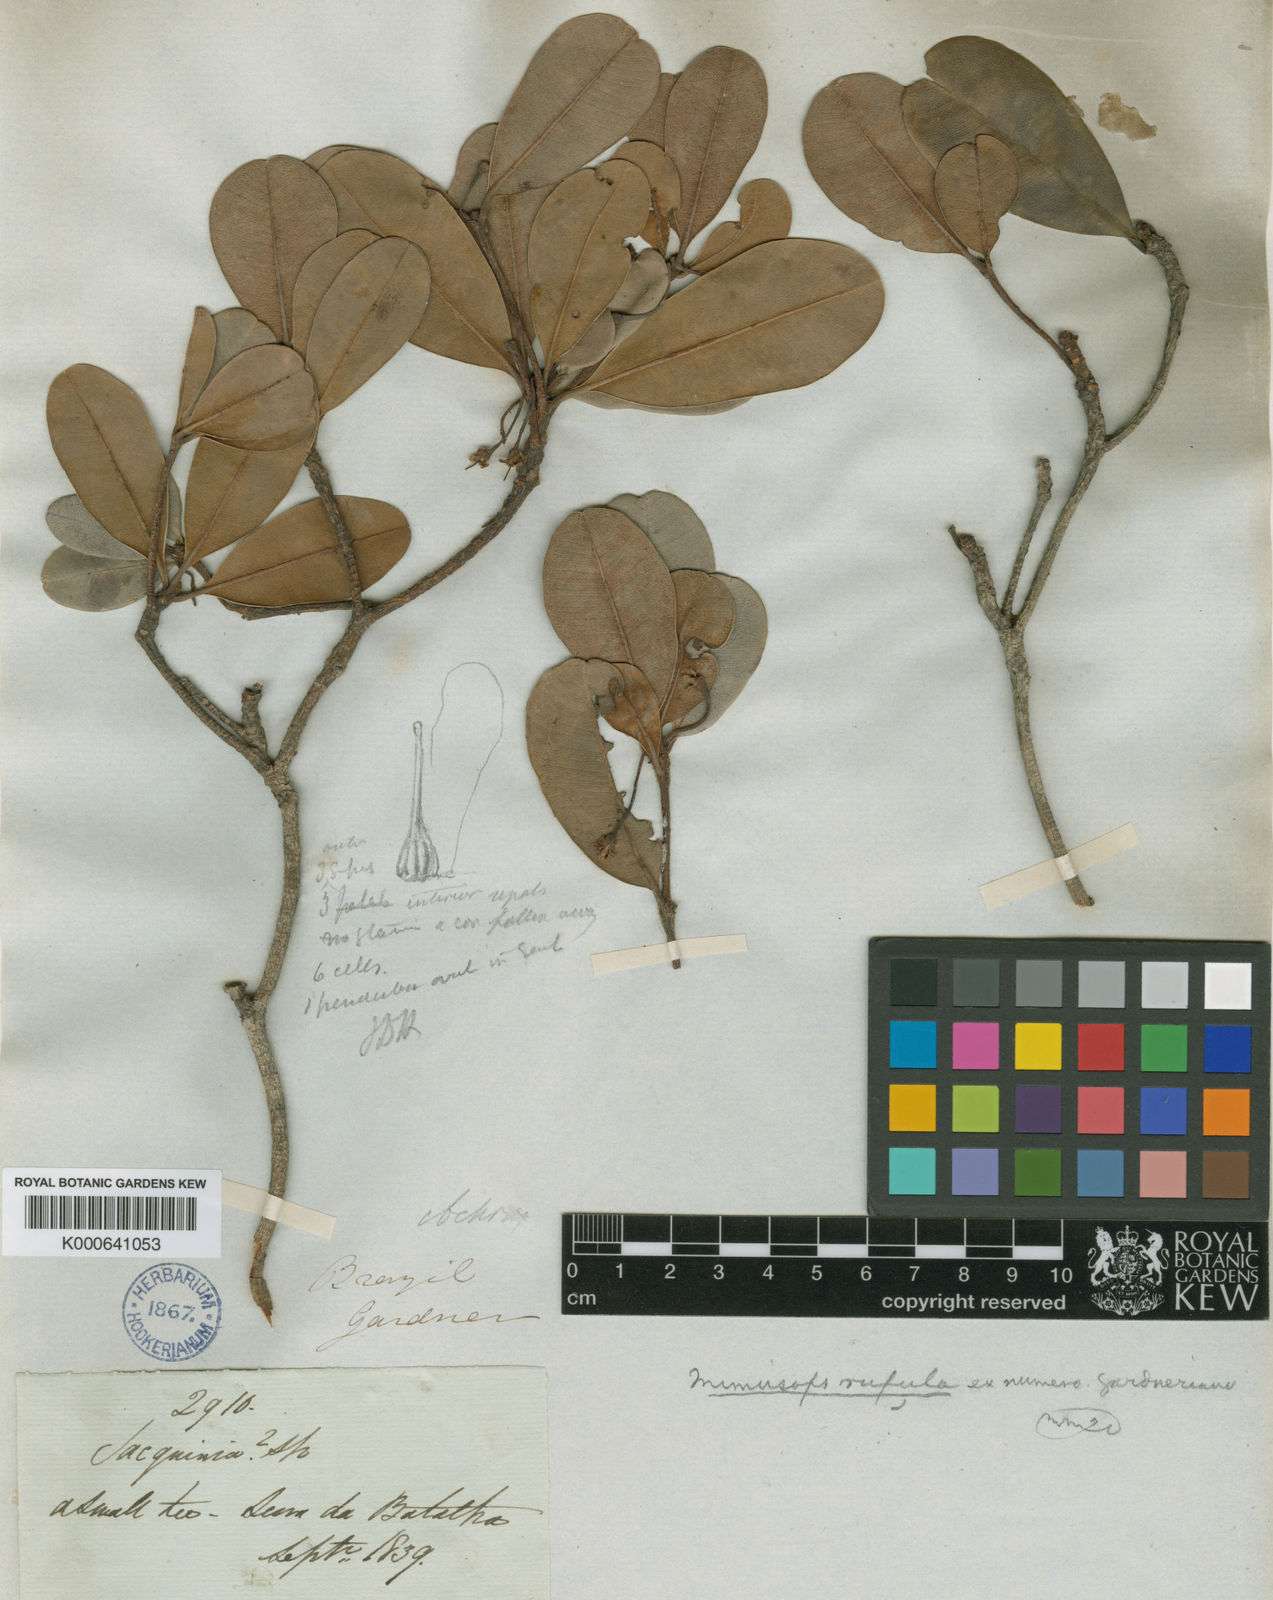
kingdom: Plantae
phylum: Tracheophyta
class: Magnoliopsida
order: Ericales
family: Sapotaceae
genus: Manilkara
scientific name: Manilkara rufula
